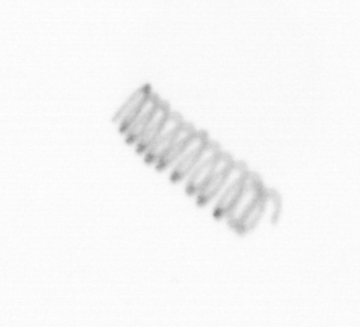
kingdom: Chromista
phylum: Ochrophyta
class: Bacillariophyceae
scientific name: Bacillariophyceae
